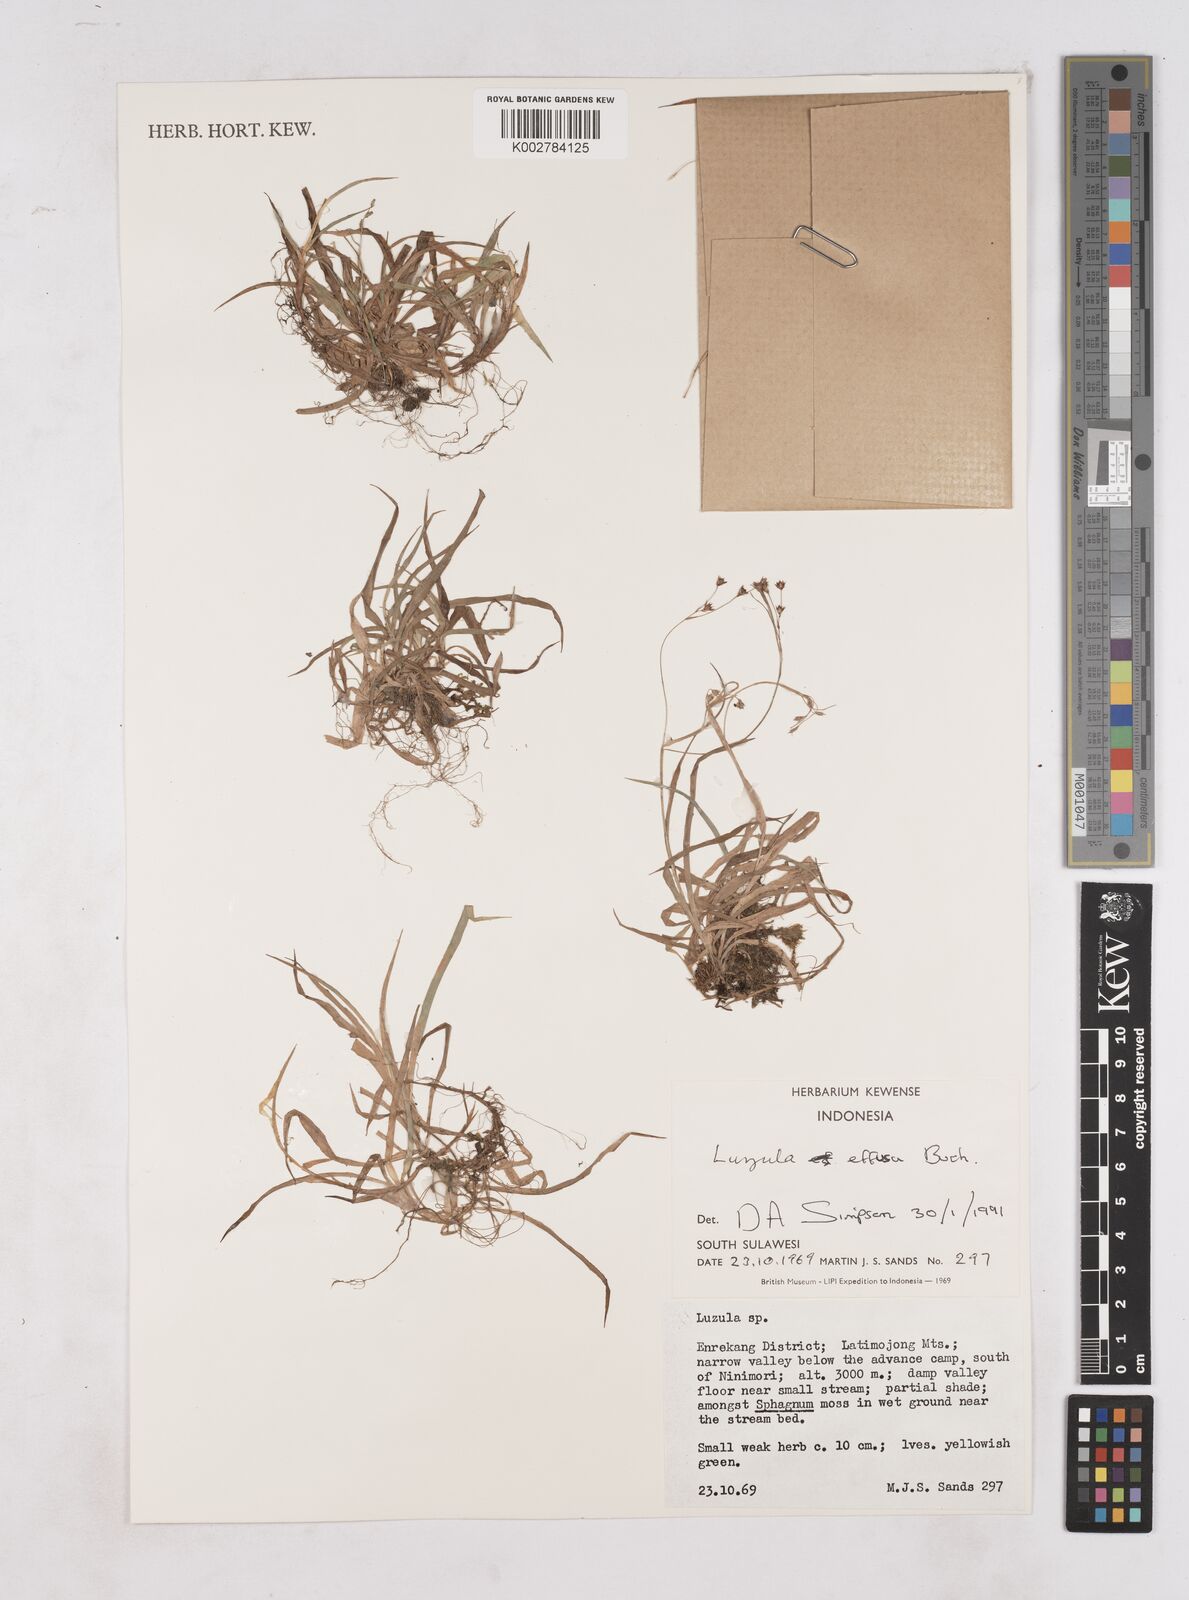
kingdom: Plantae
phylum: Tracheophyta
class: Liliopsida
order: Poales
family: Juncaceae
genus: Luzula
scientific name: Luzula effusa
